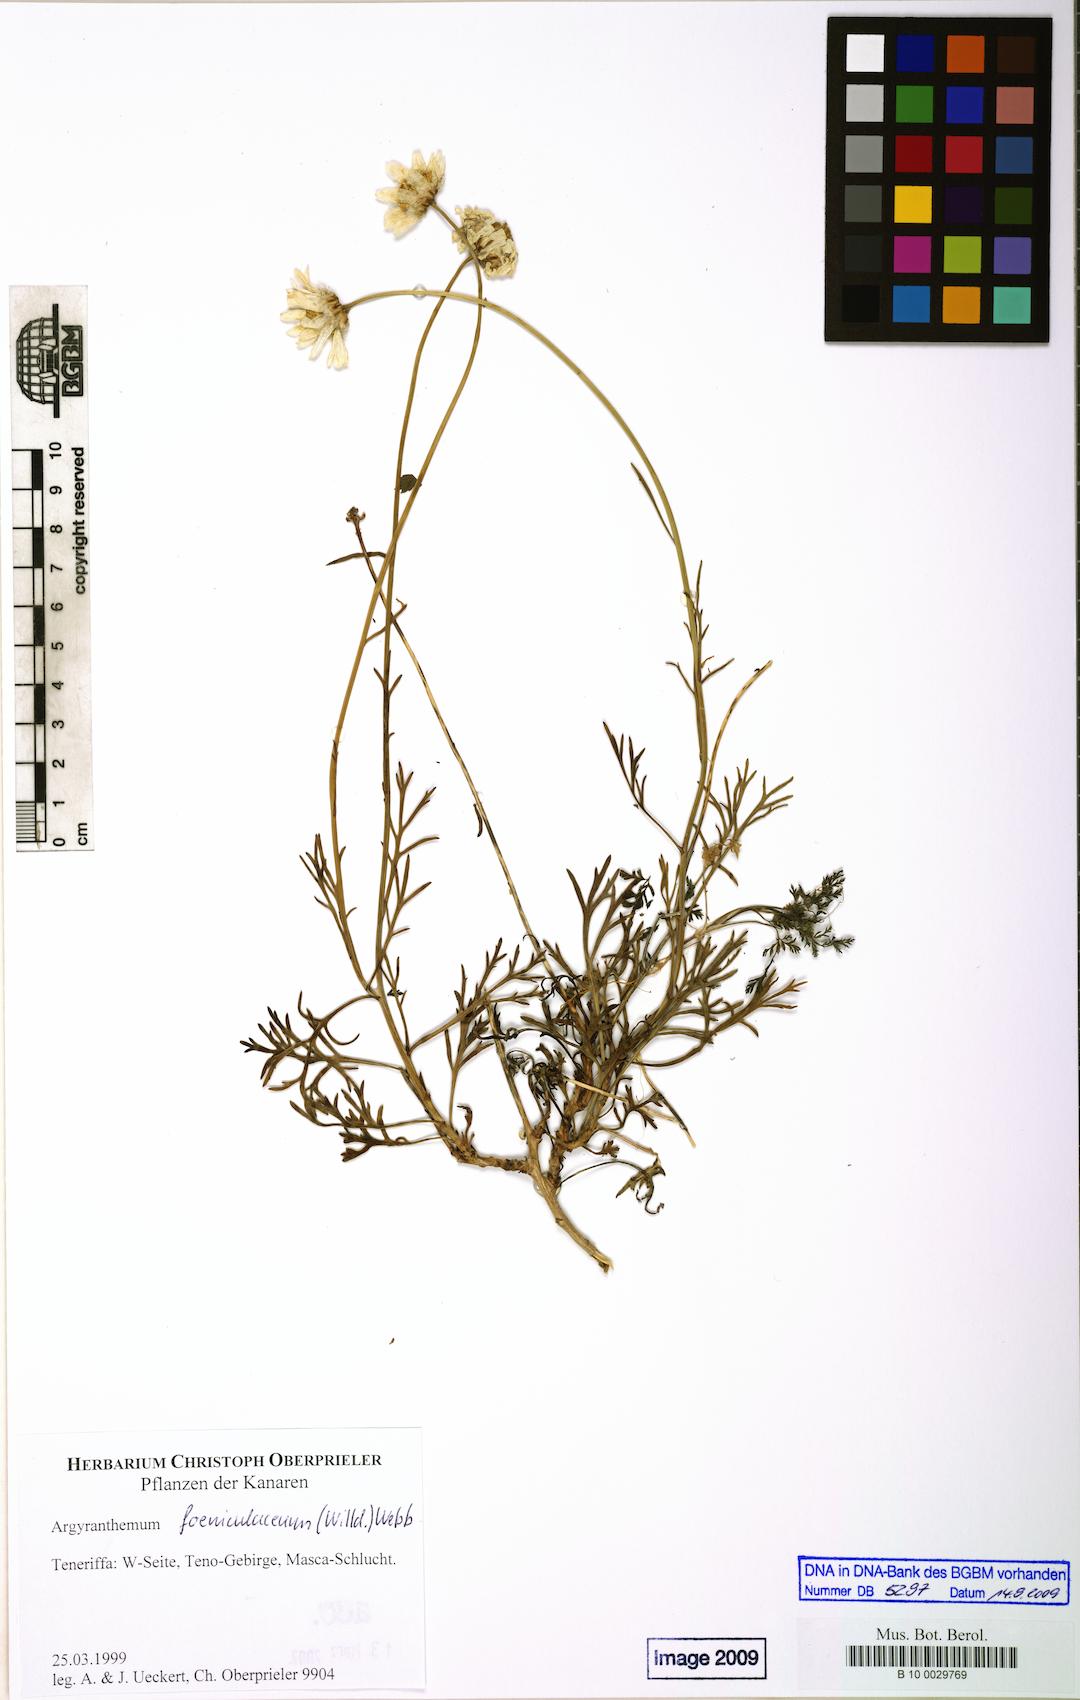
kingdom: Plantae
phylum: Tracheophyta
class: Magnoliopsida
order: Asterales
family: Asteraceae
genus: Argyranthemum
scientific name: Argyranthemum foeniculaceum
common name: Canary island marguerite
